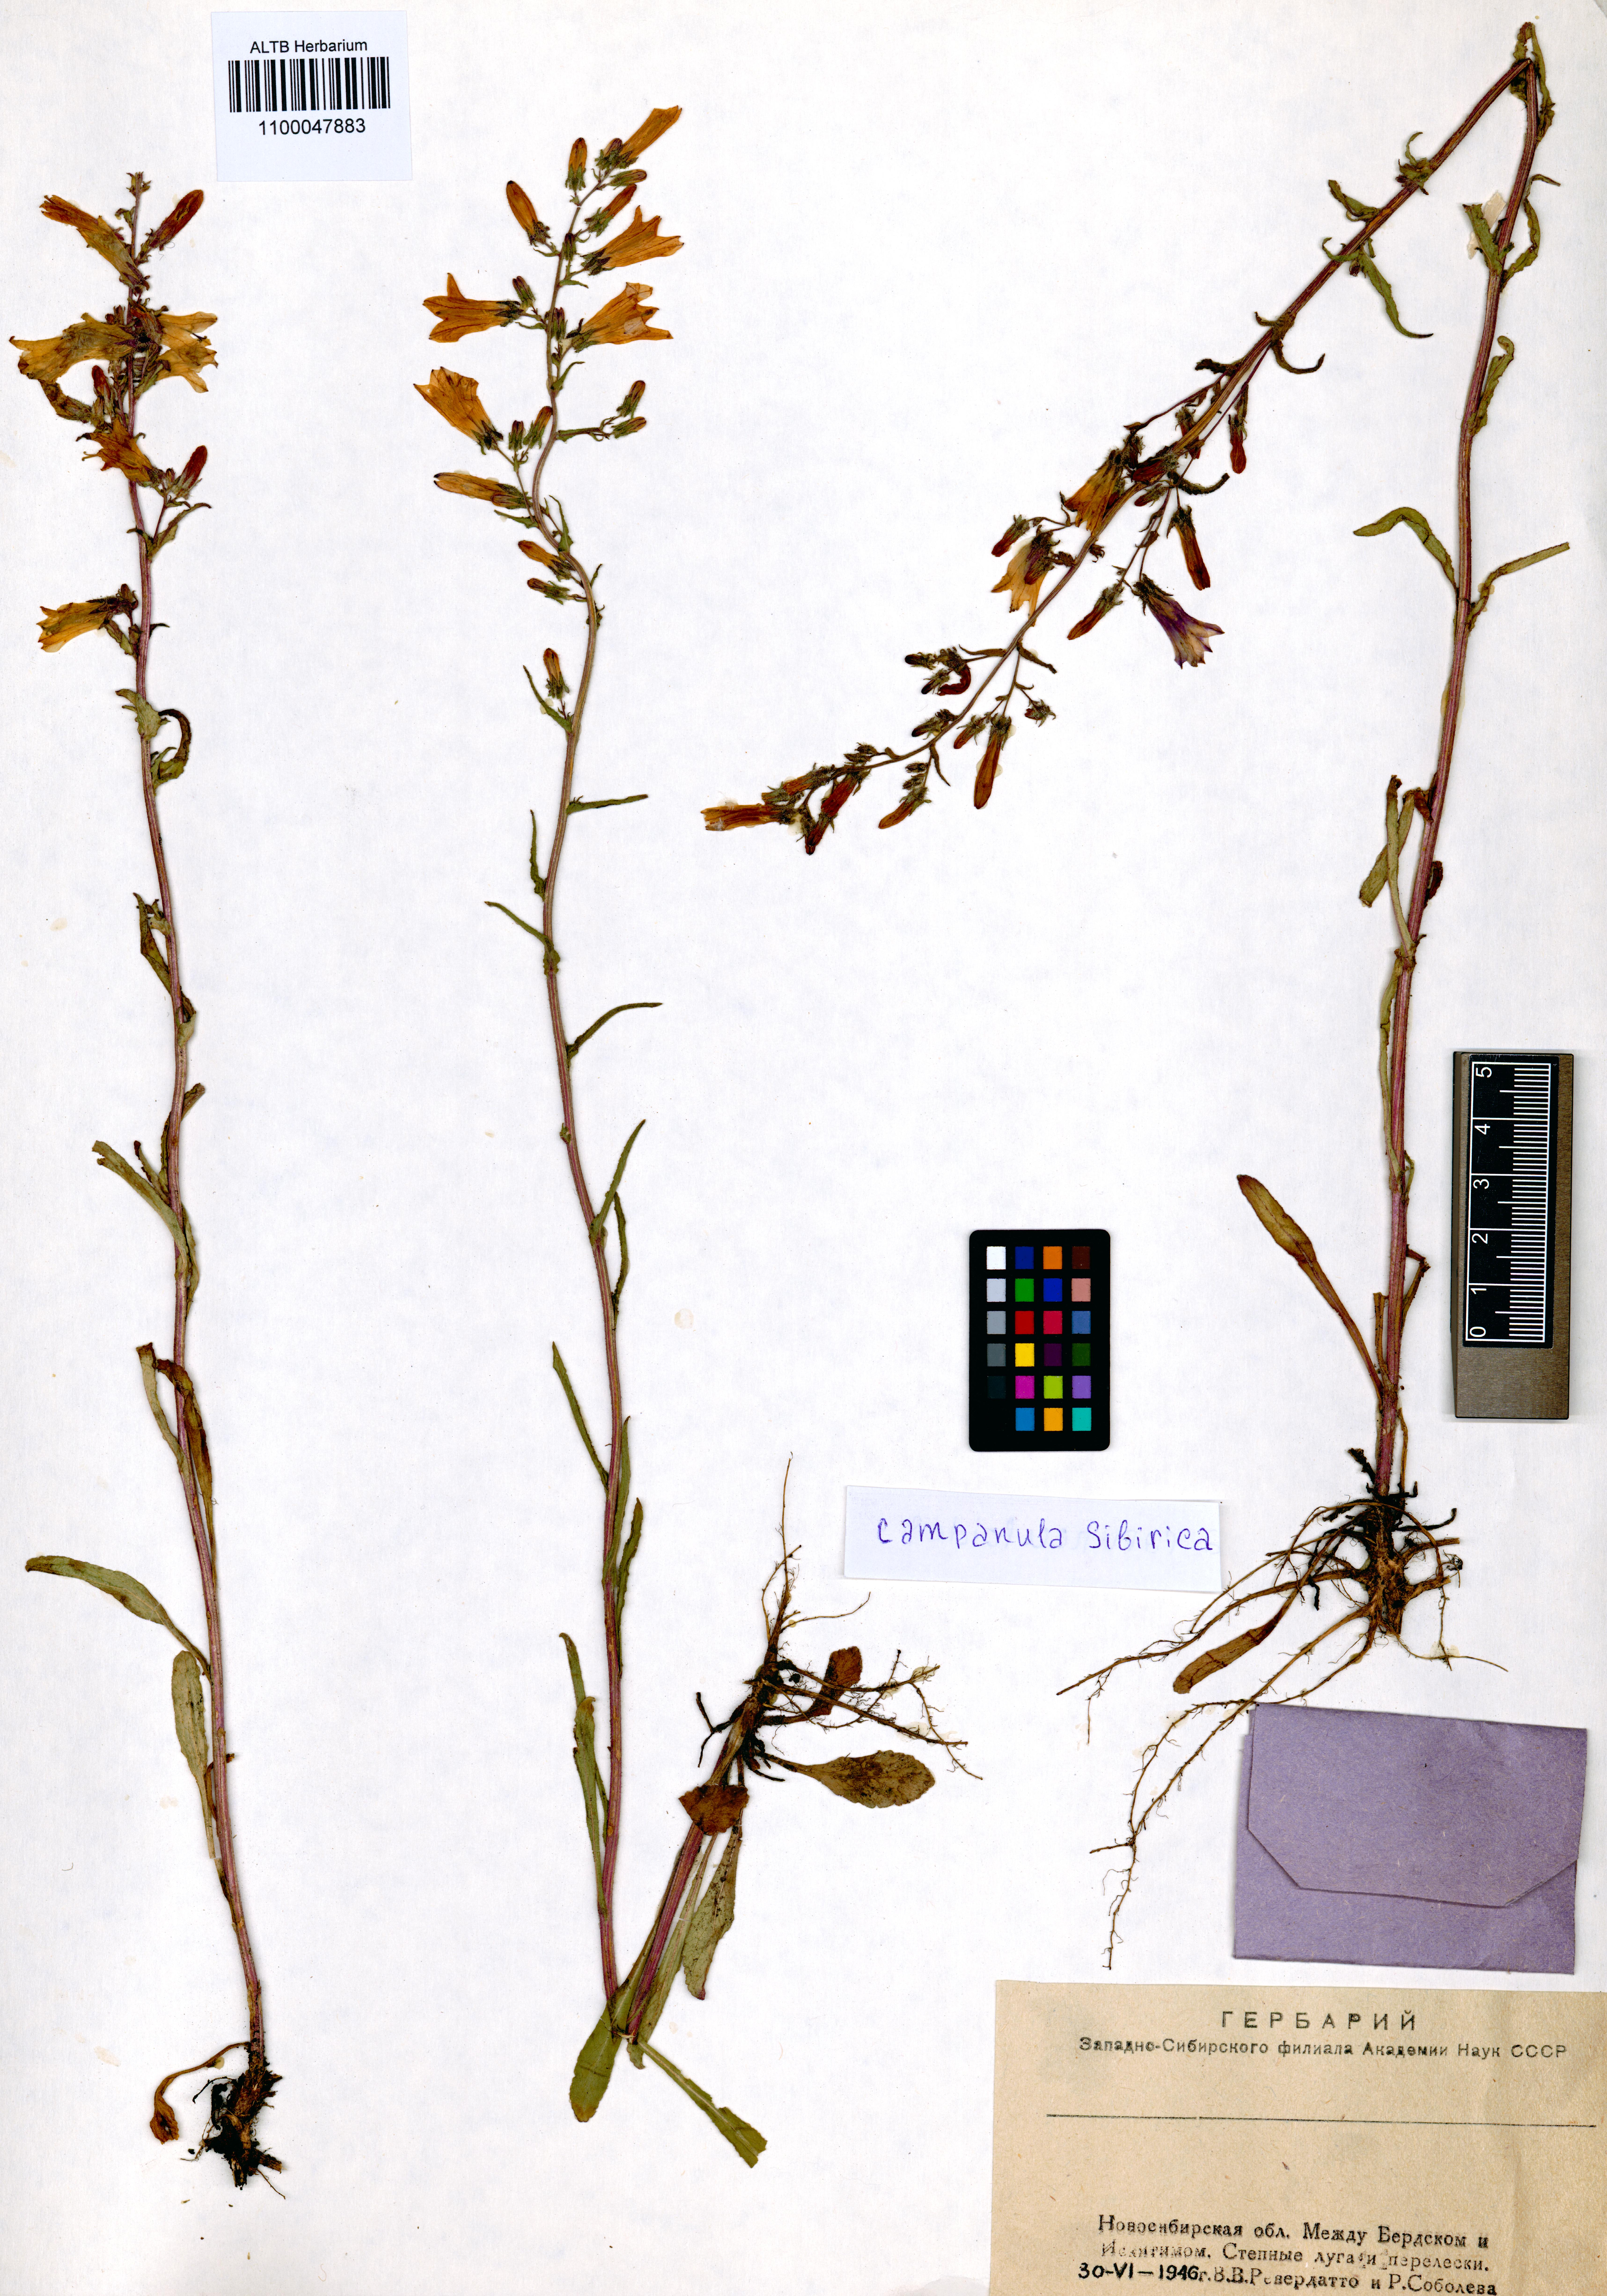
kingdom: Plantae
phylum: Tracheophyta
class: Magnoliopsida
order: Asterales
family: Campanulaceae
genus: Campanula
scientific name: Campanula sibirica
